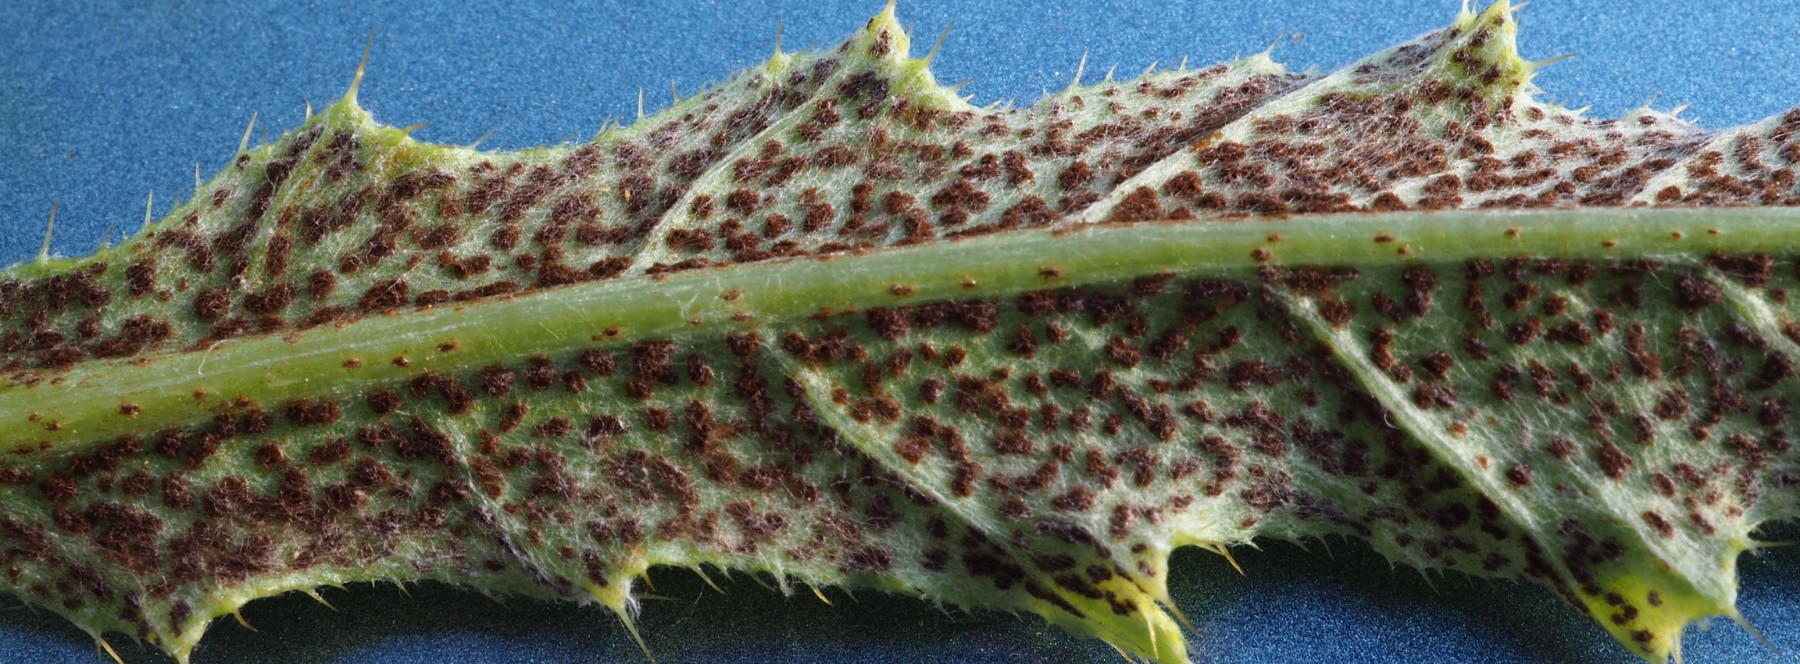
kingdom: Fungi
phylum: Basidiomycota
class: Pucciniomycetes
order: Pucciniales
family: Pucciniaceae
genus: Puccinia
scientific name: Puccinia suaveolens
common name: tidsel-tvecellerust
